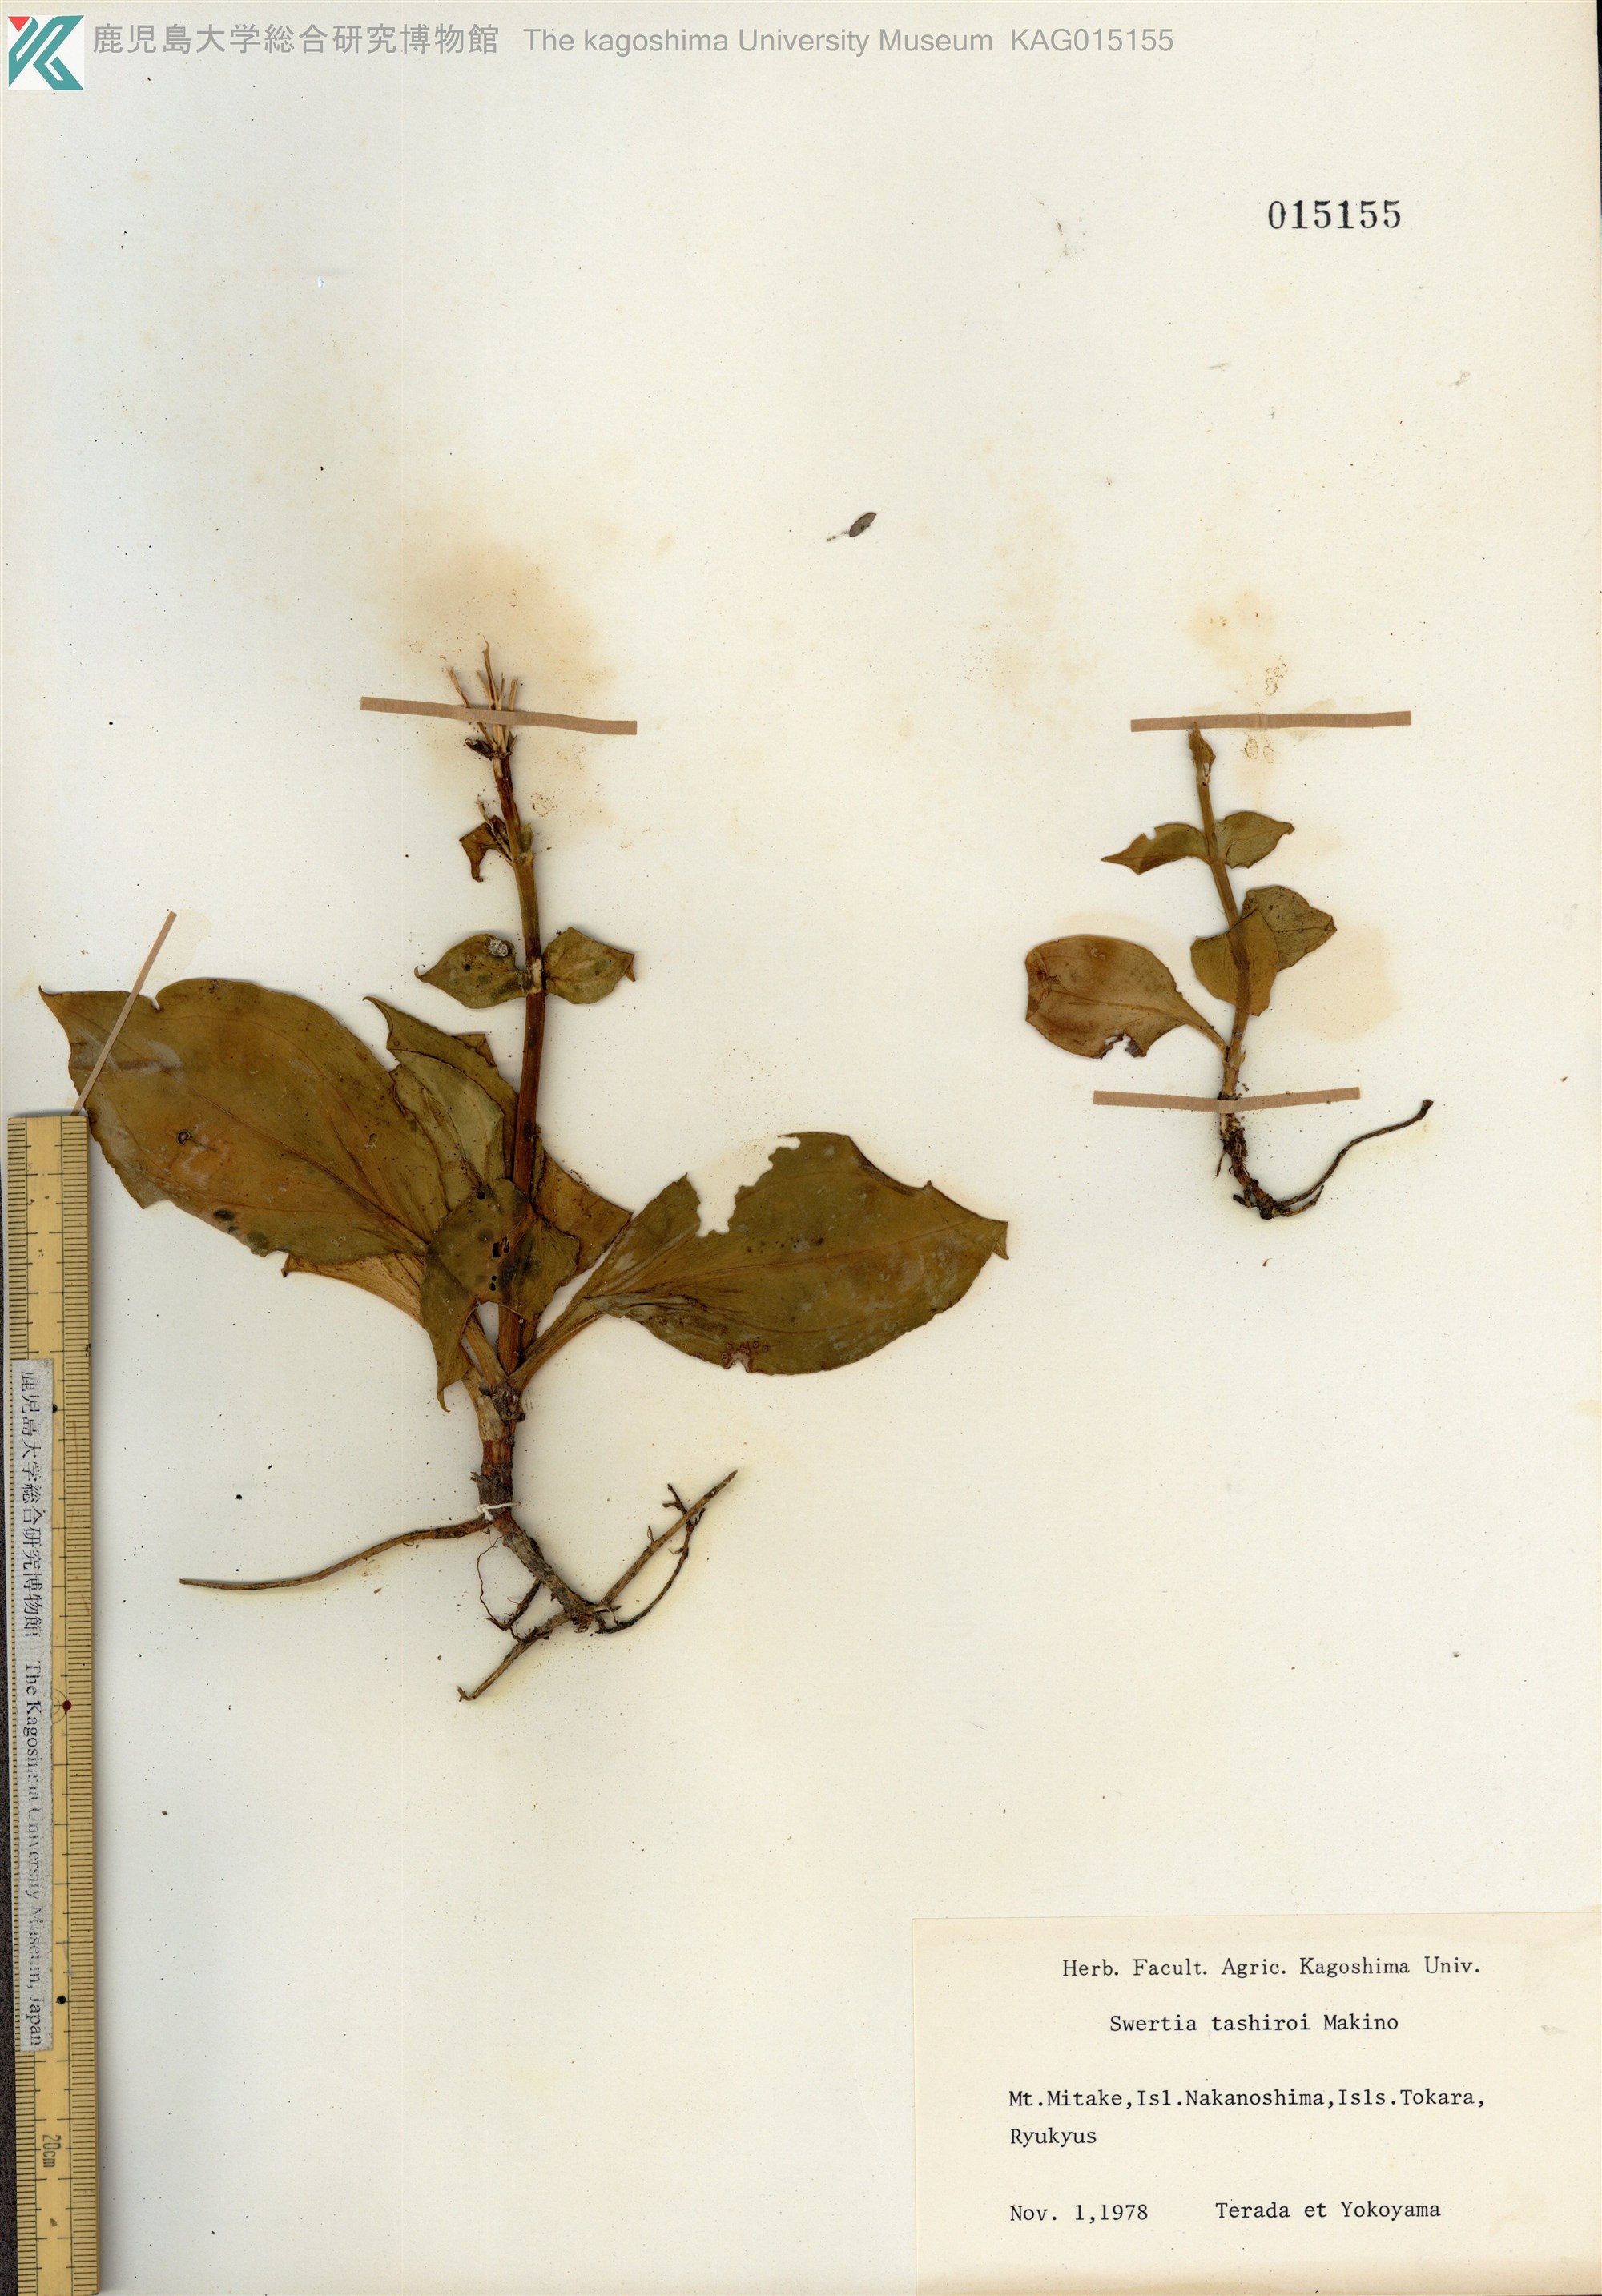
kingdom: Plantae
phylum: Tracheophyta
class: Magnoliopsida
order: Gentianales
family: Gentianaceae
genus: Swertia
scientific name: Swertia tashiroi
